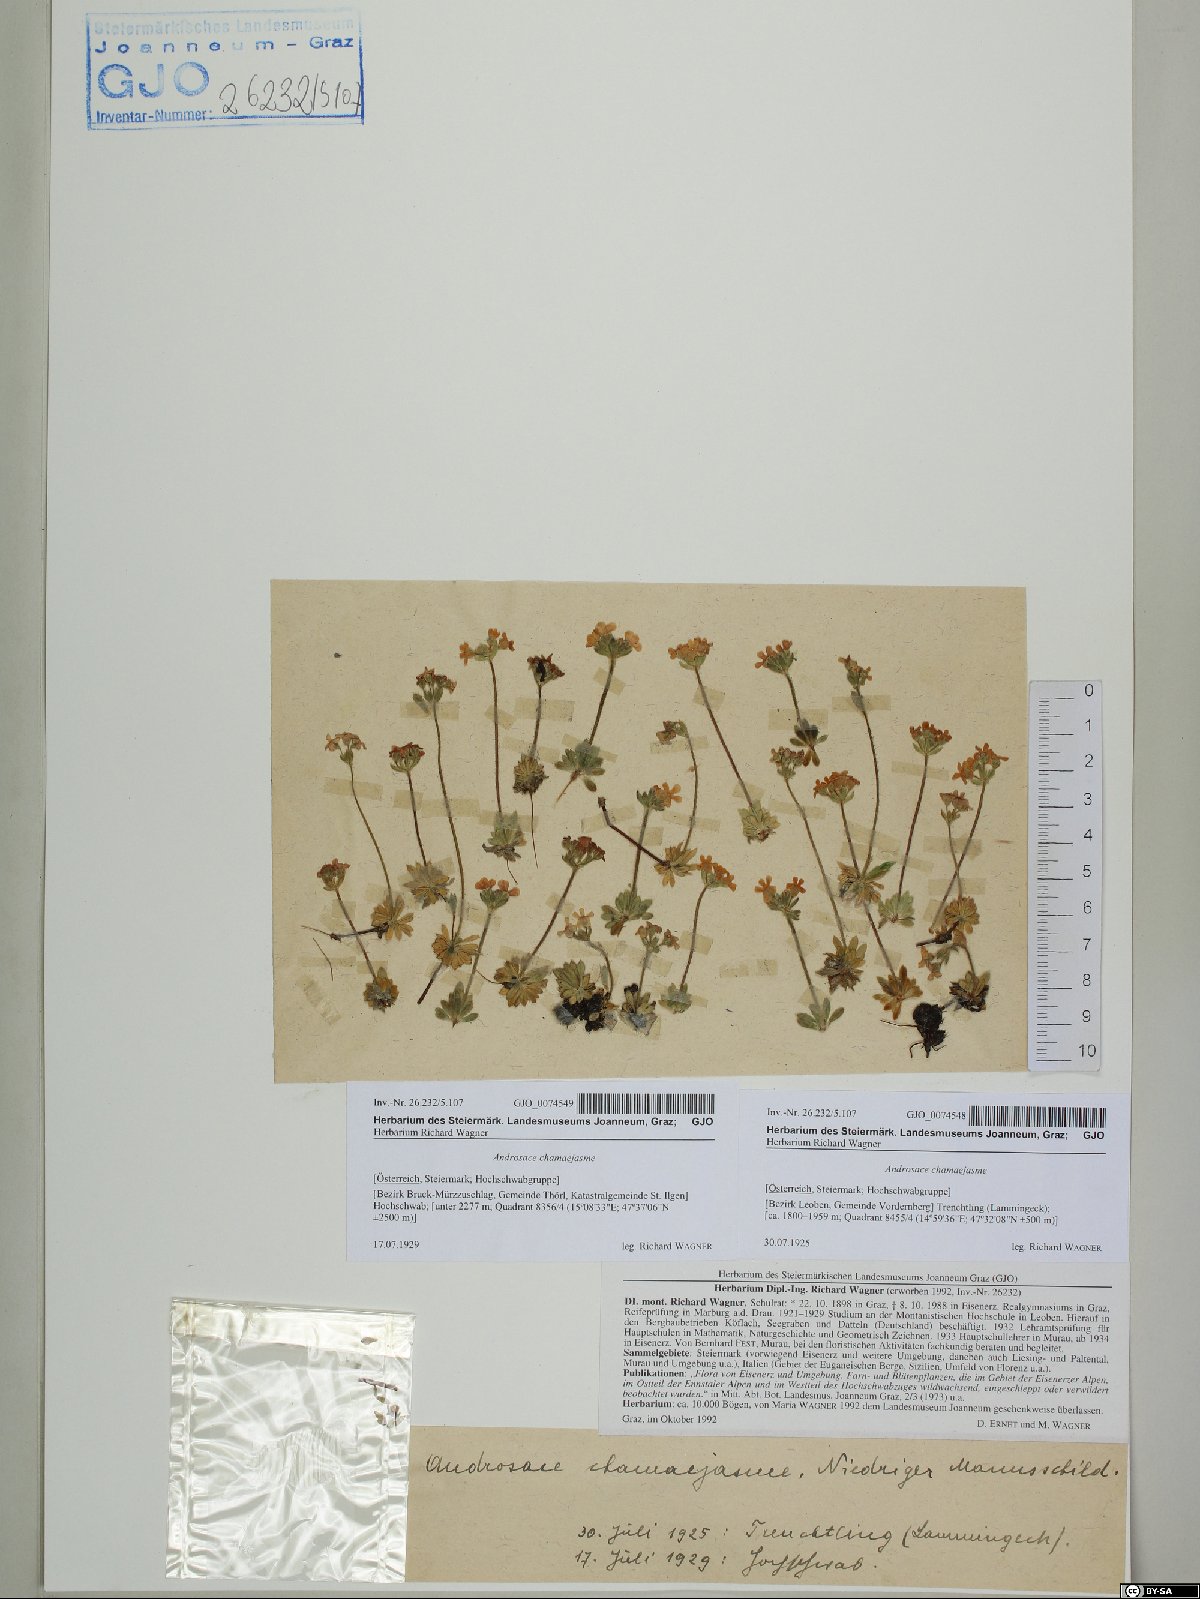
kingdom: Plantae
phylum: Tracheophyta
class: Magnoliopsida
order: Ericales
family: Primulaceae
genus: Androsace
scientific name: Androsace chamaejasme
